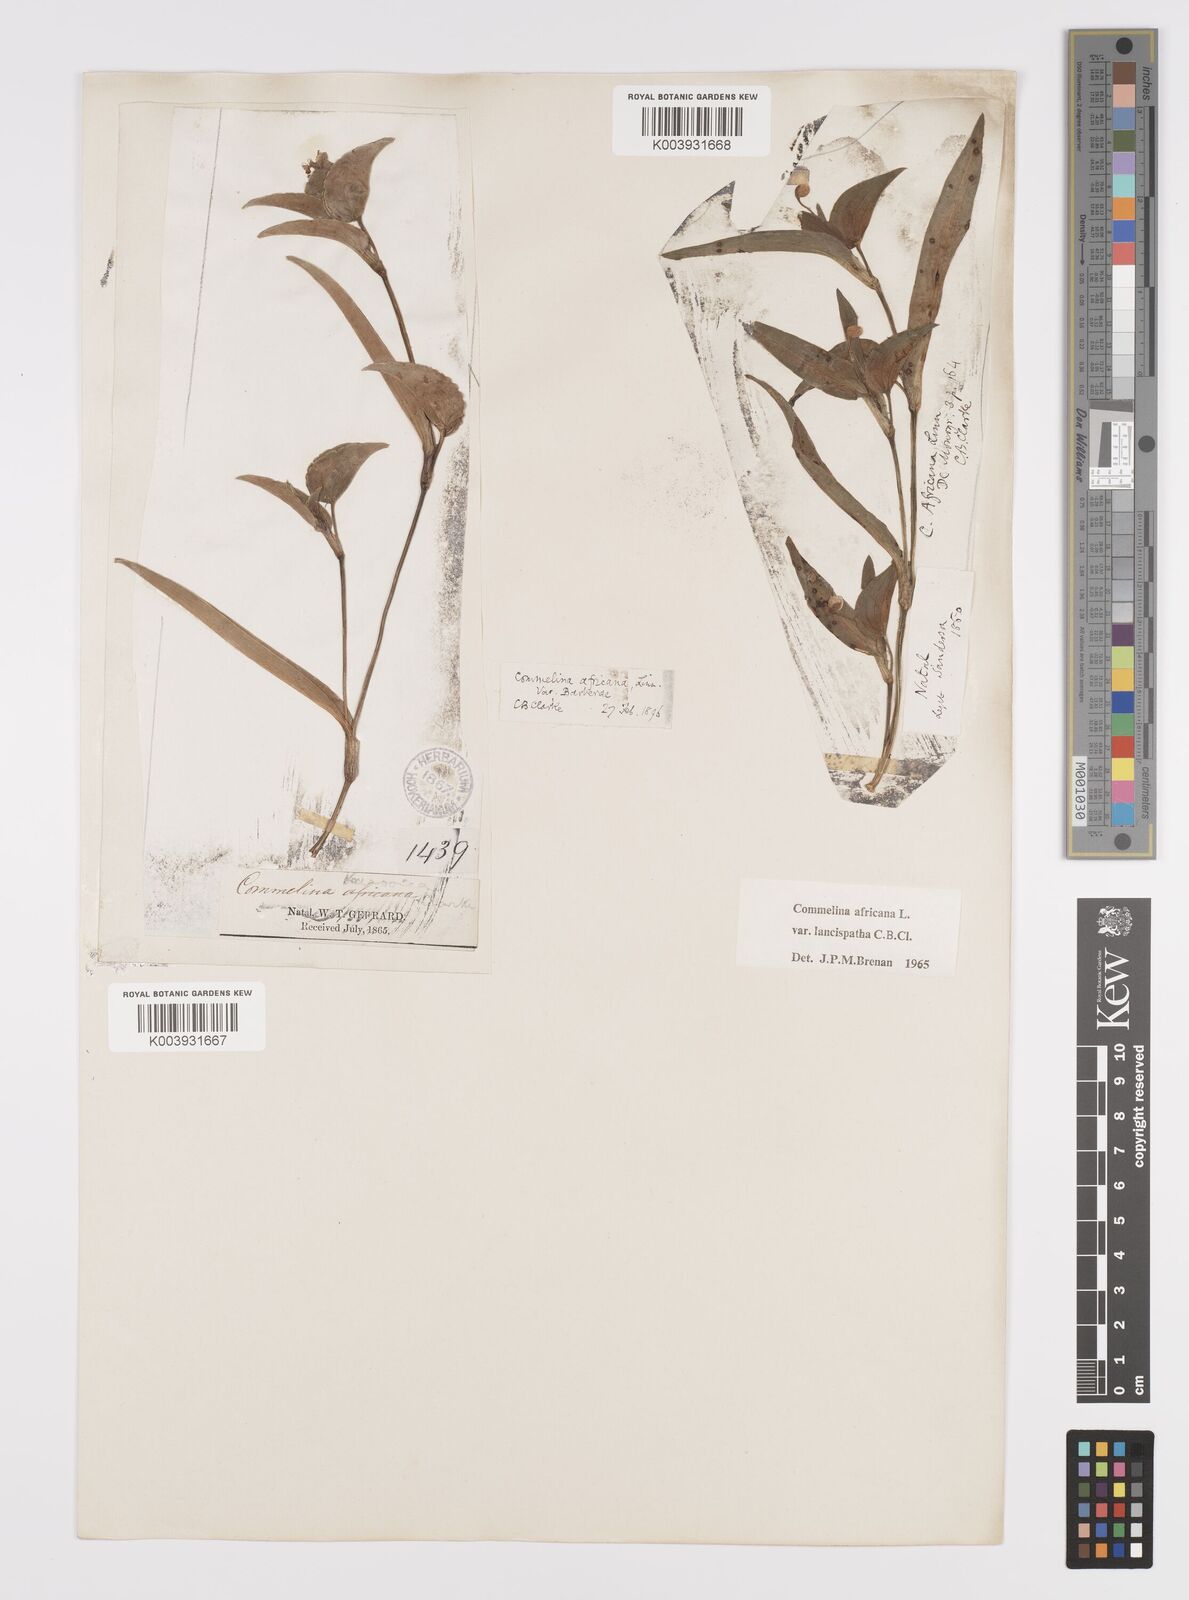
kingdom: Plantae
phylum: Tracheophyta
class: Liliopsida
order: Commelinales
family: Commelinaceae
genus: Commelina
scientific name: Commelina africana
